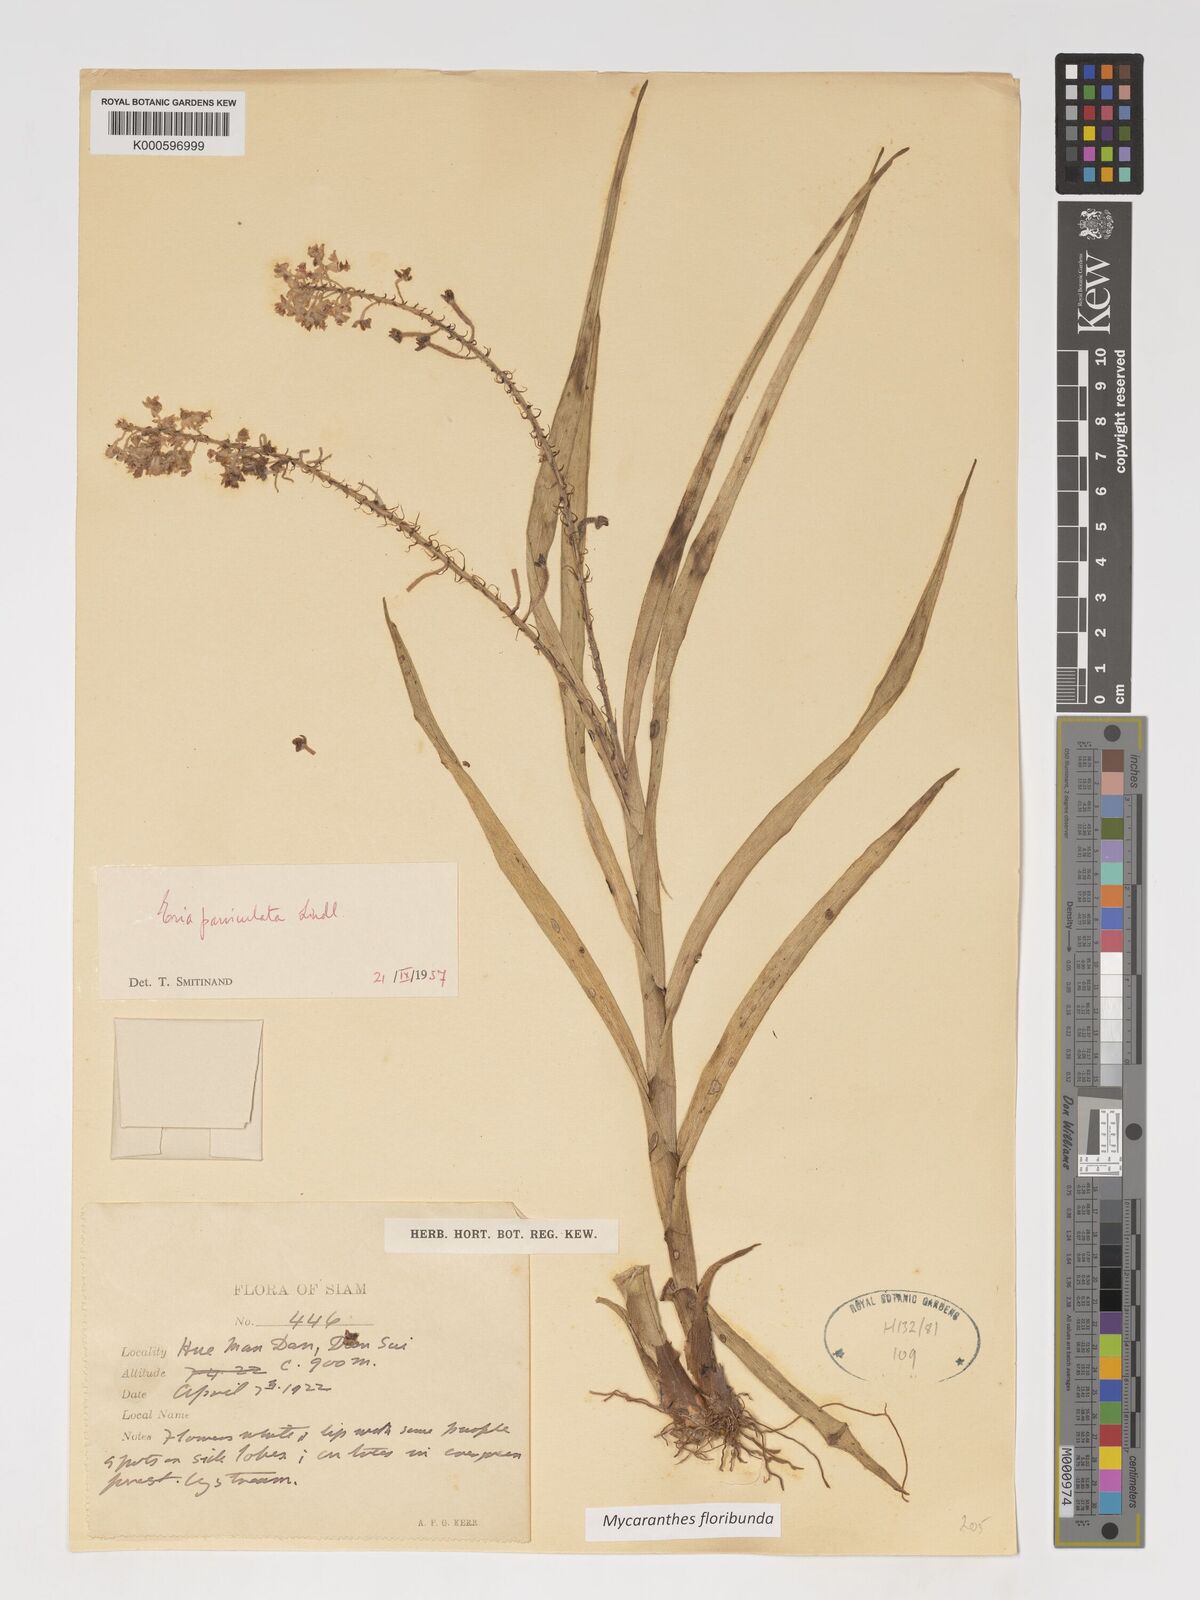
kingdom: Plantae
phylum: Tracheophyta
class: Liliopsida
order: Asparagales
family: Orchidaceae
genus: Mycaranthes
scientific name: Mycaranthes floribunda
